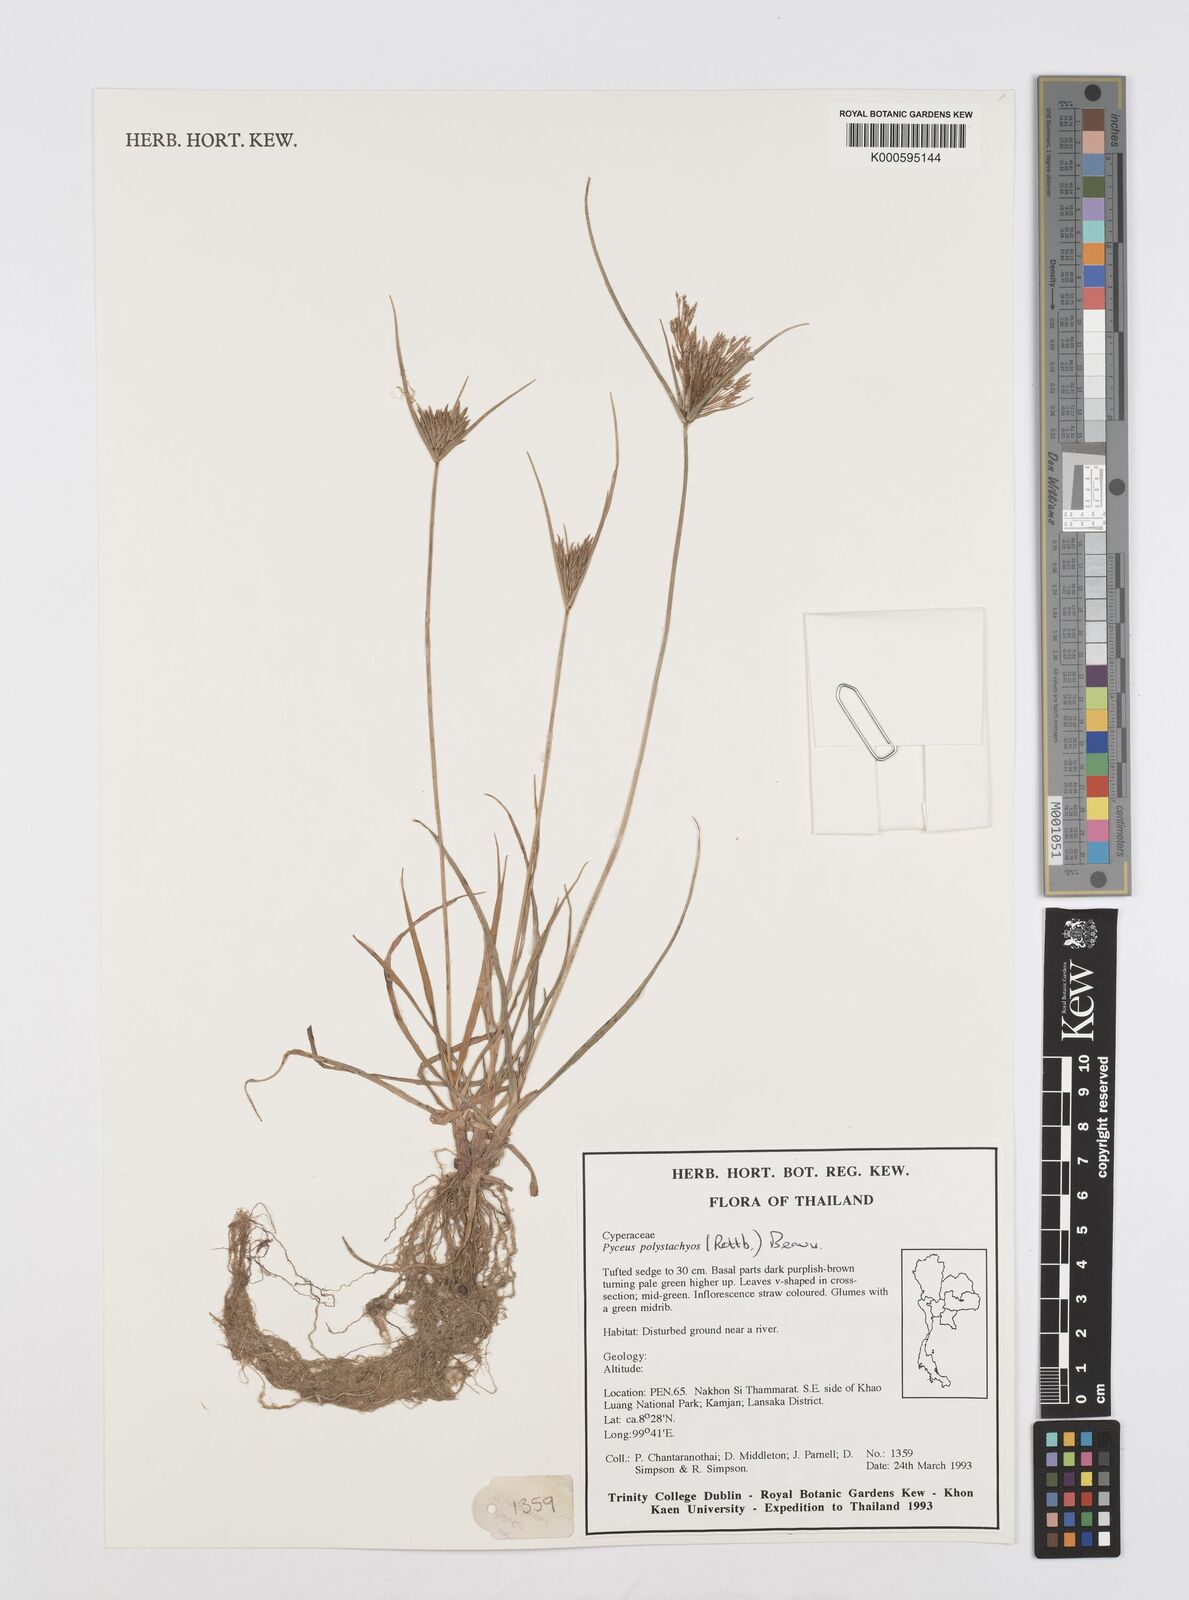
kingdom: Plantae
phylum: Tracheophyta
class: Liliopsida
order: Poales
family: Cyperaceae
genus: Cyperus
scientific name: Cyperus polystachyos
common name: Bunchy flat sedge
